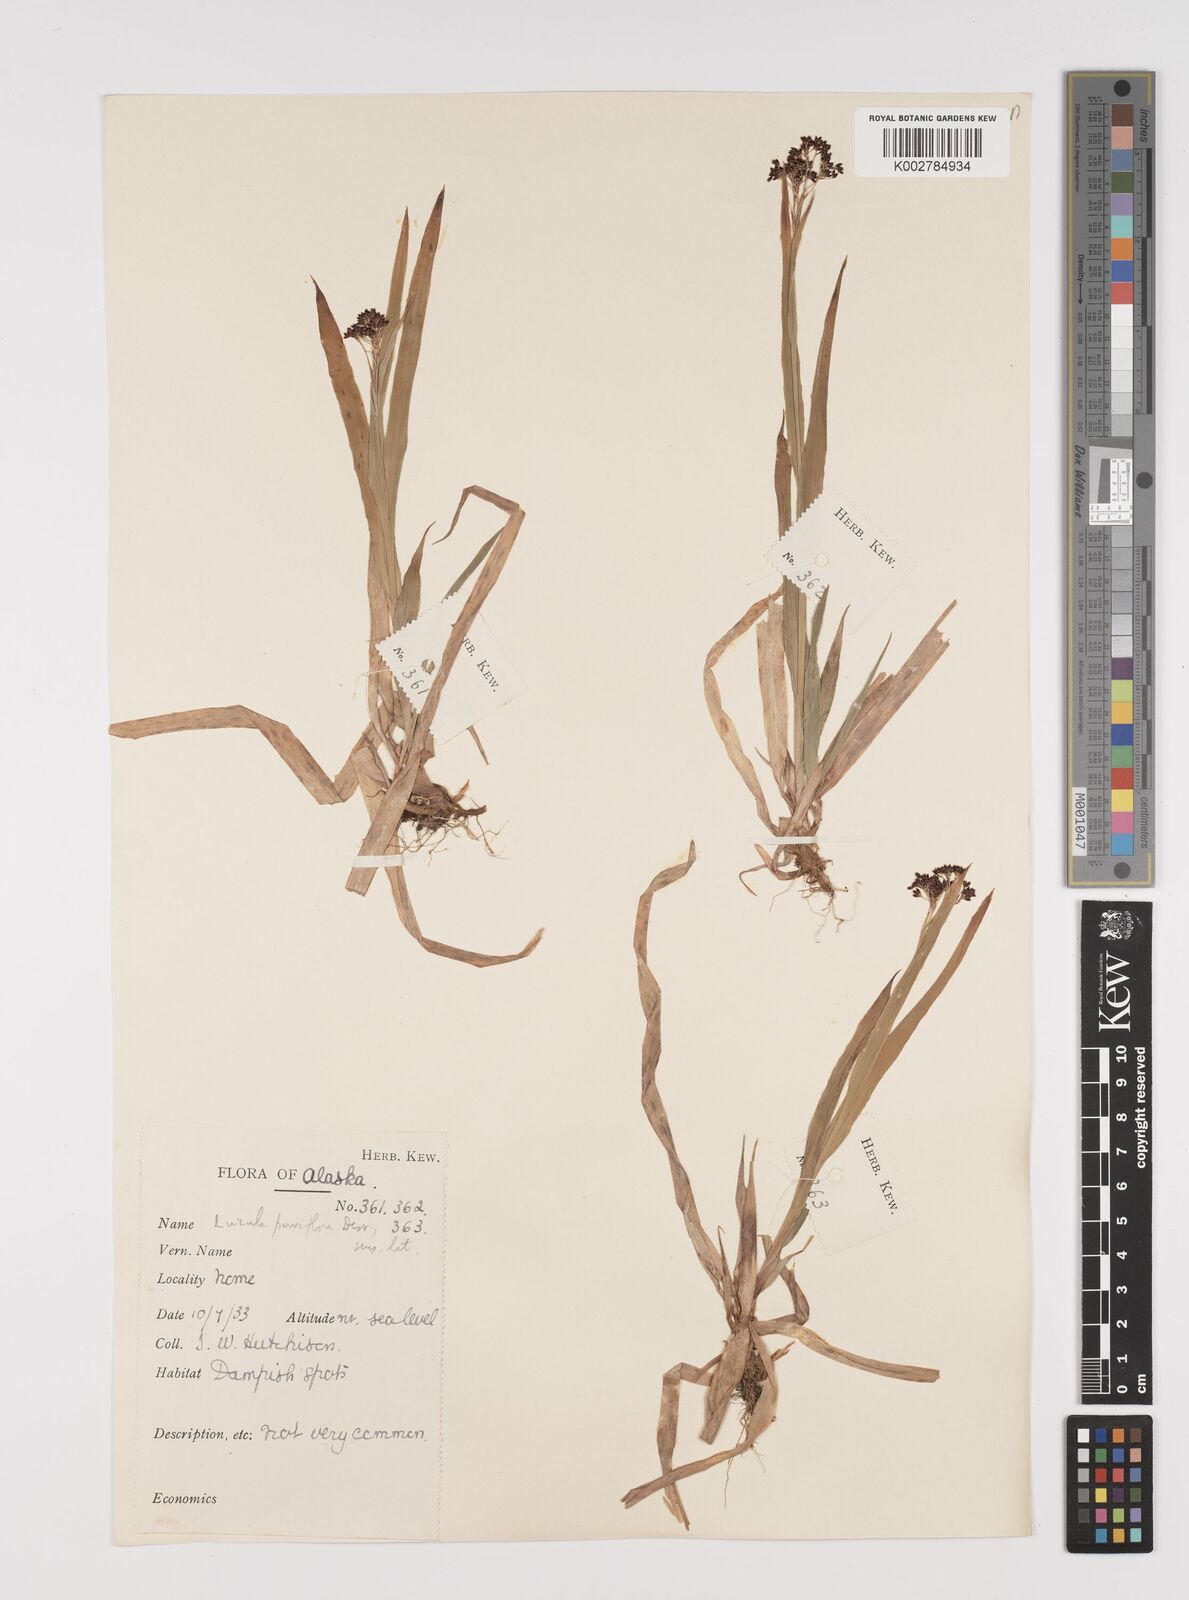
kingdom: Plantae
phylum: Tracheophyta
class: Liliopsida
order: Poales
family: Juncaceae
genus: Luzula
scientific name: Luzula parviflora
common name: Millet woodrush
